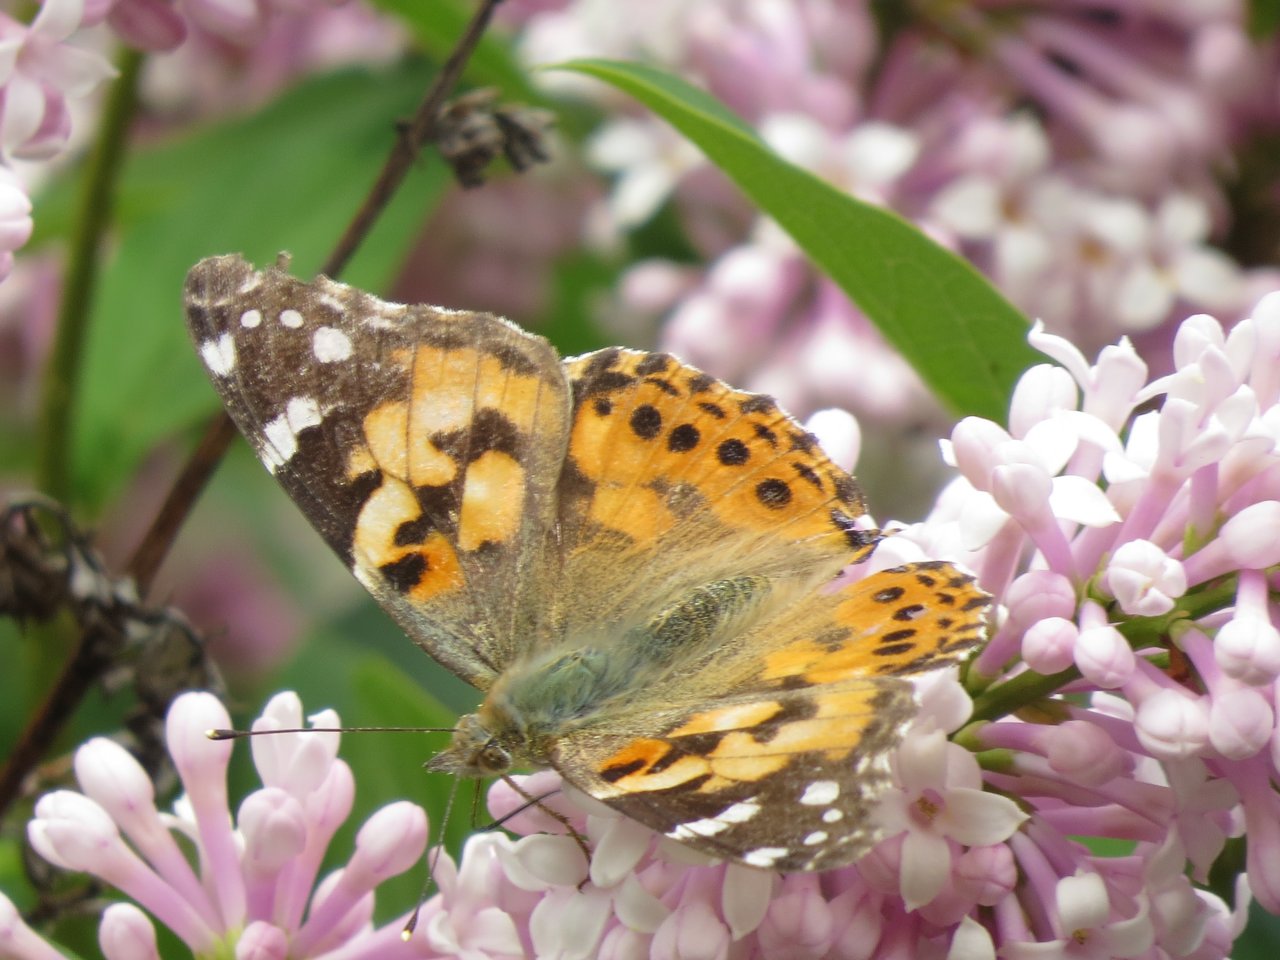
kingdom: Animalia
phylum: Arthropoda
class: Insecta
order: Lepidoptera
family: Nymphalidae
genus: Vanessa
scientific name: Vanessa cardui
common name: Painted Lady
